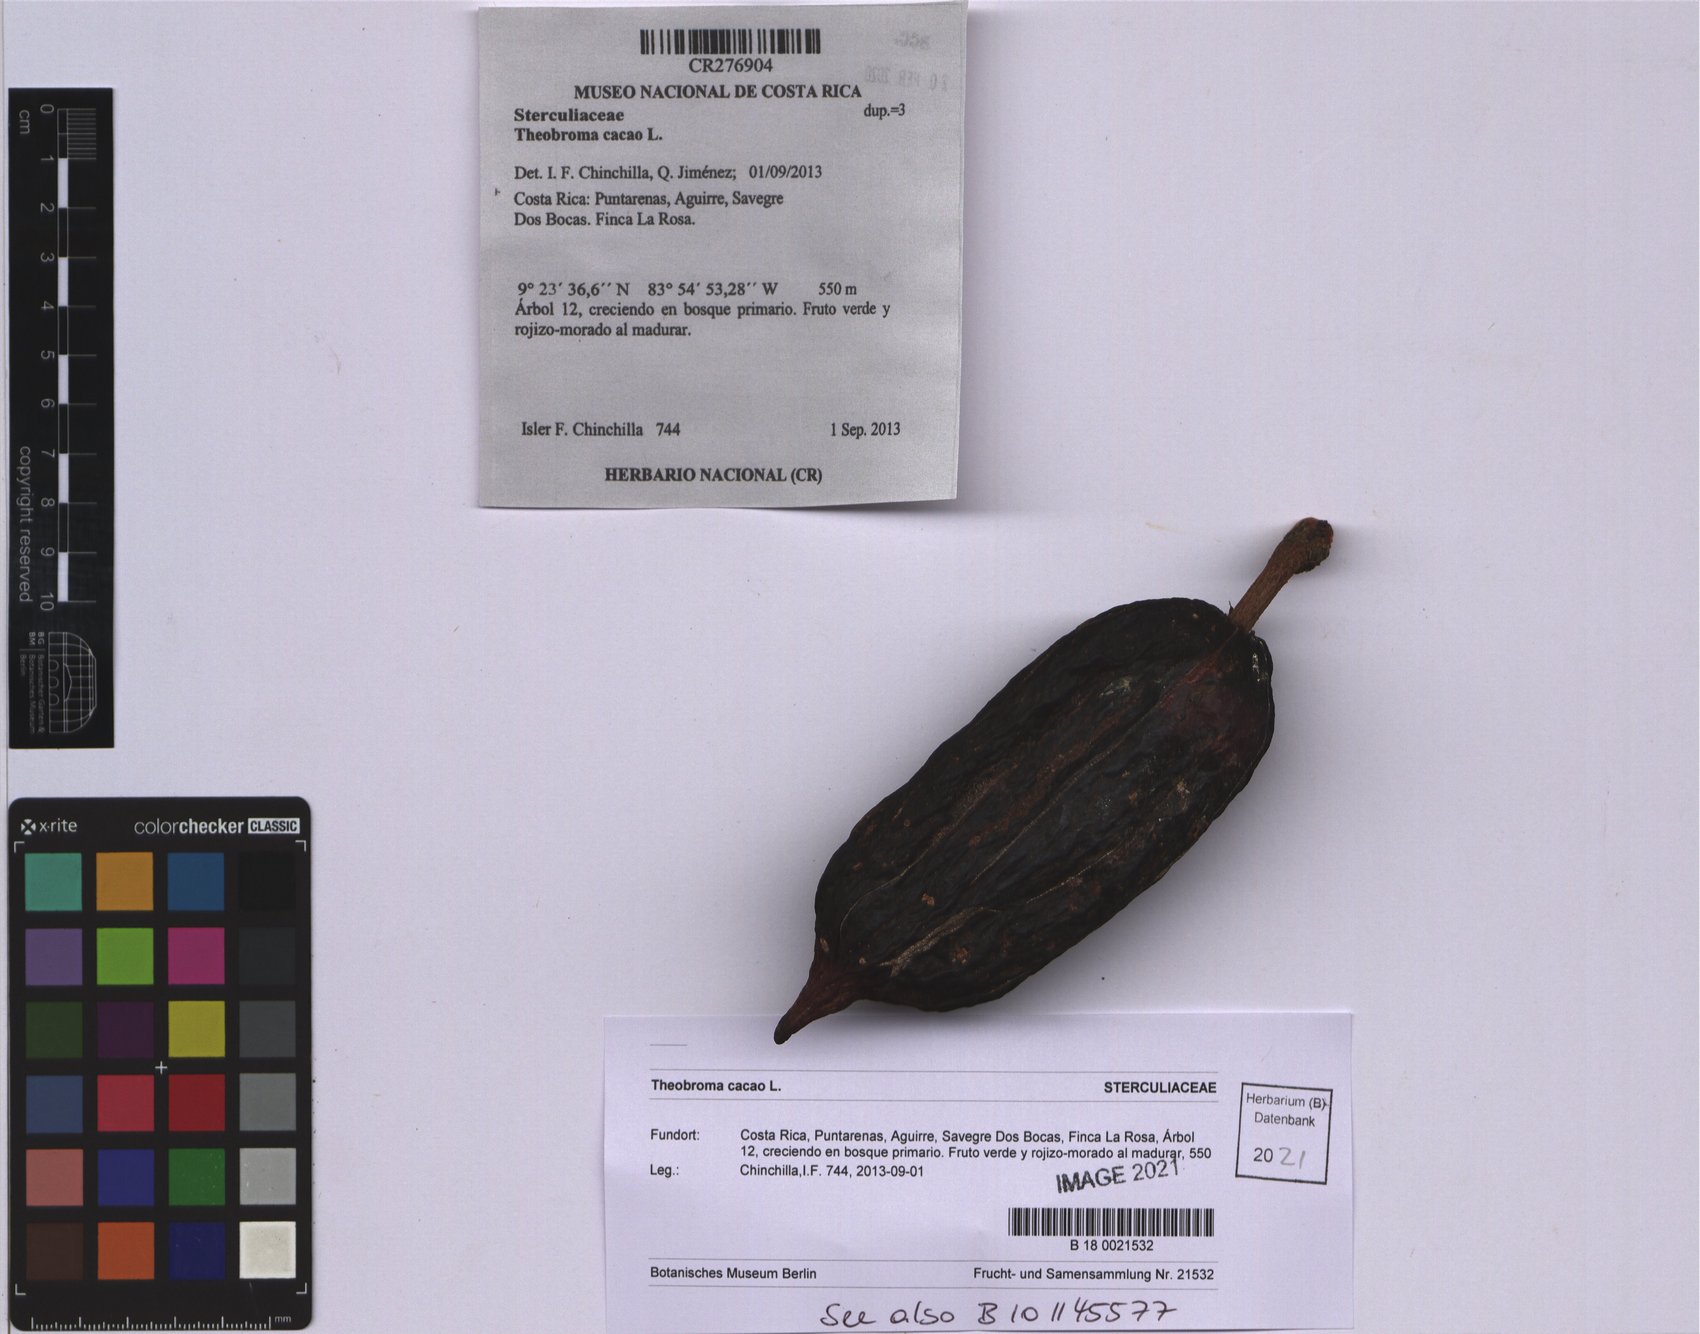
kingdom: Plantae
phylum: Tracheophyta
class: Magnoliopsida
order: Malvales
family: Malvaceae
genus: Theobroma
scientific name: Theobroma cacao
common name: Cocoa
